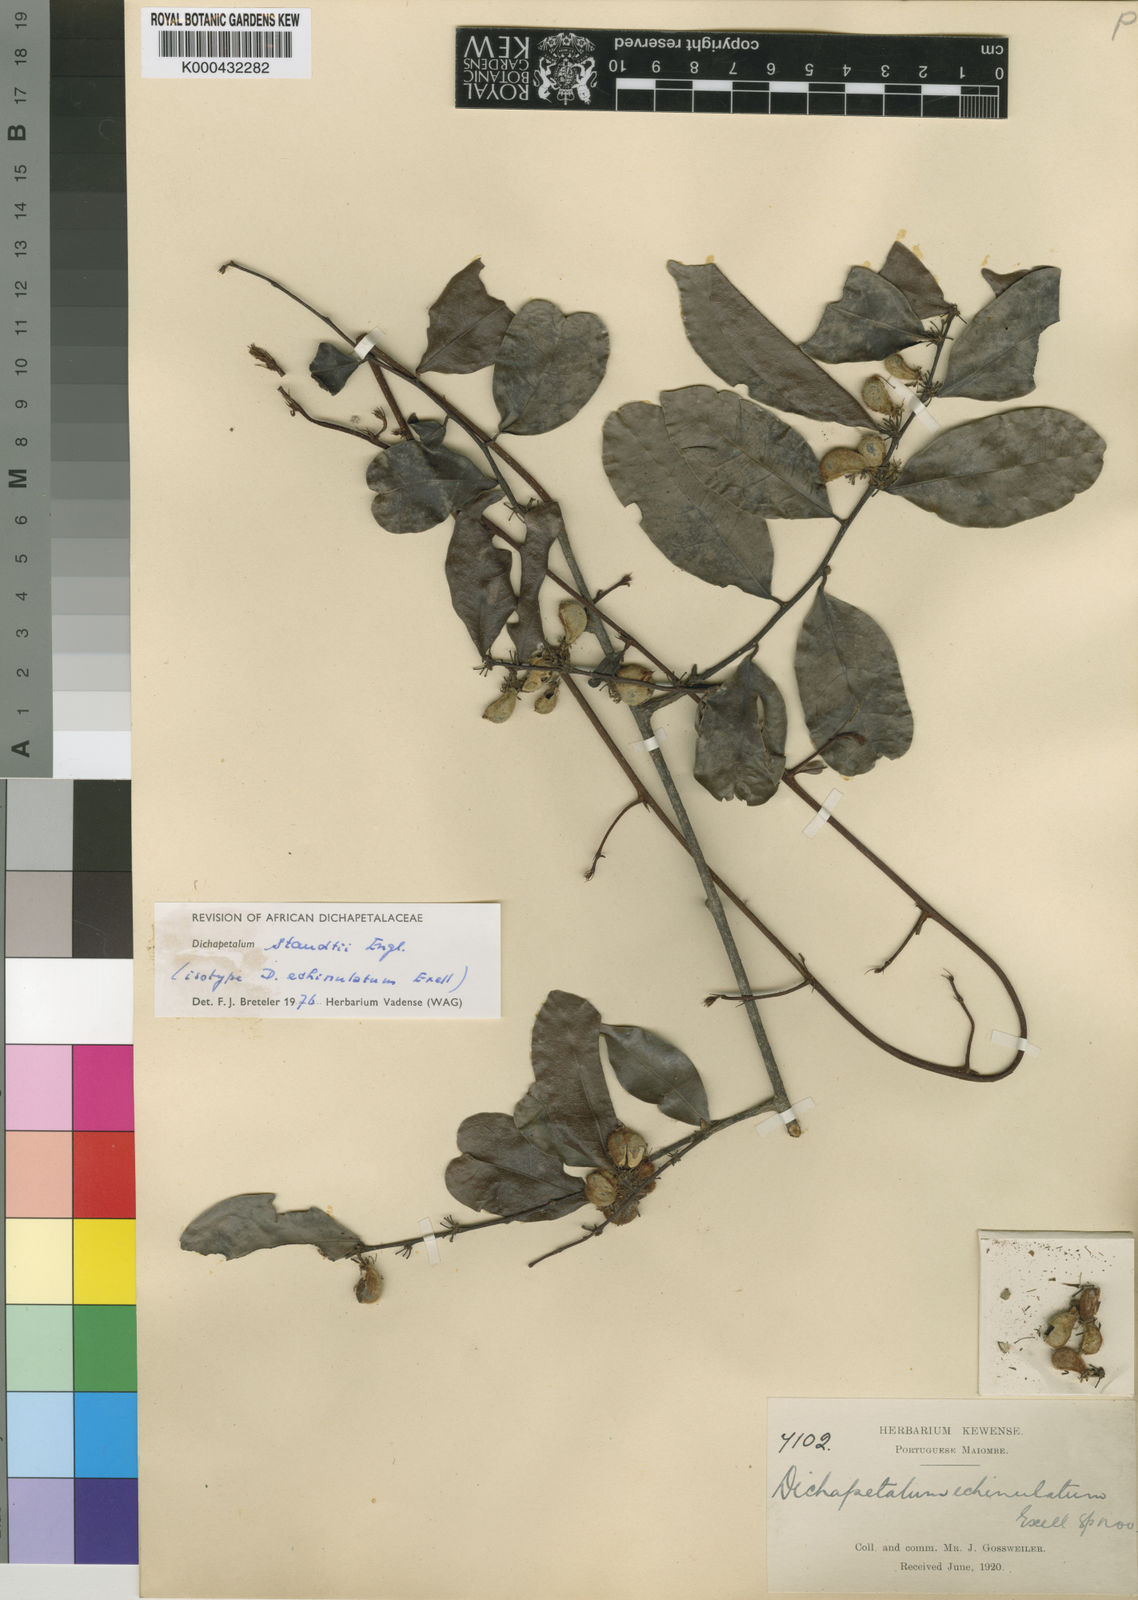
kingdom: Plantae
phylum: Tracheophyta
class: Magnoliopsida
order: Malpighiales
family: Dichapetalaceae
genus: Dichapetalum
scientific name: Dichapetalum staudtii
